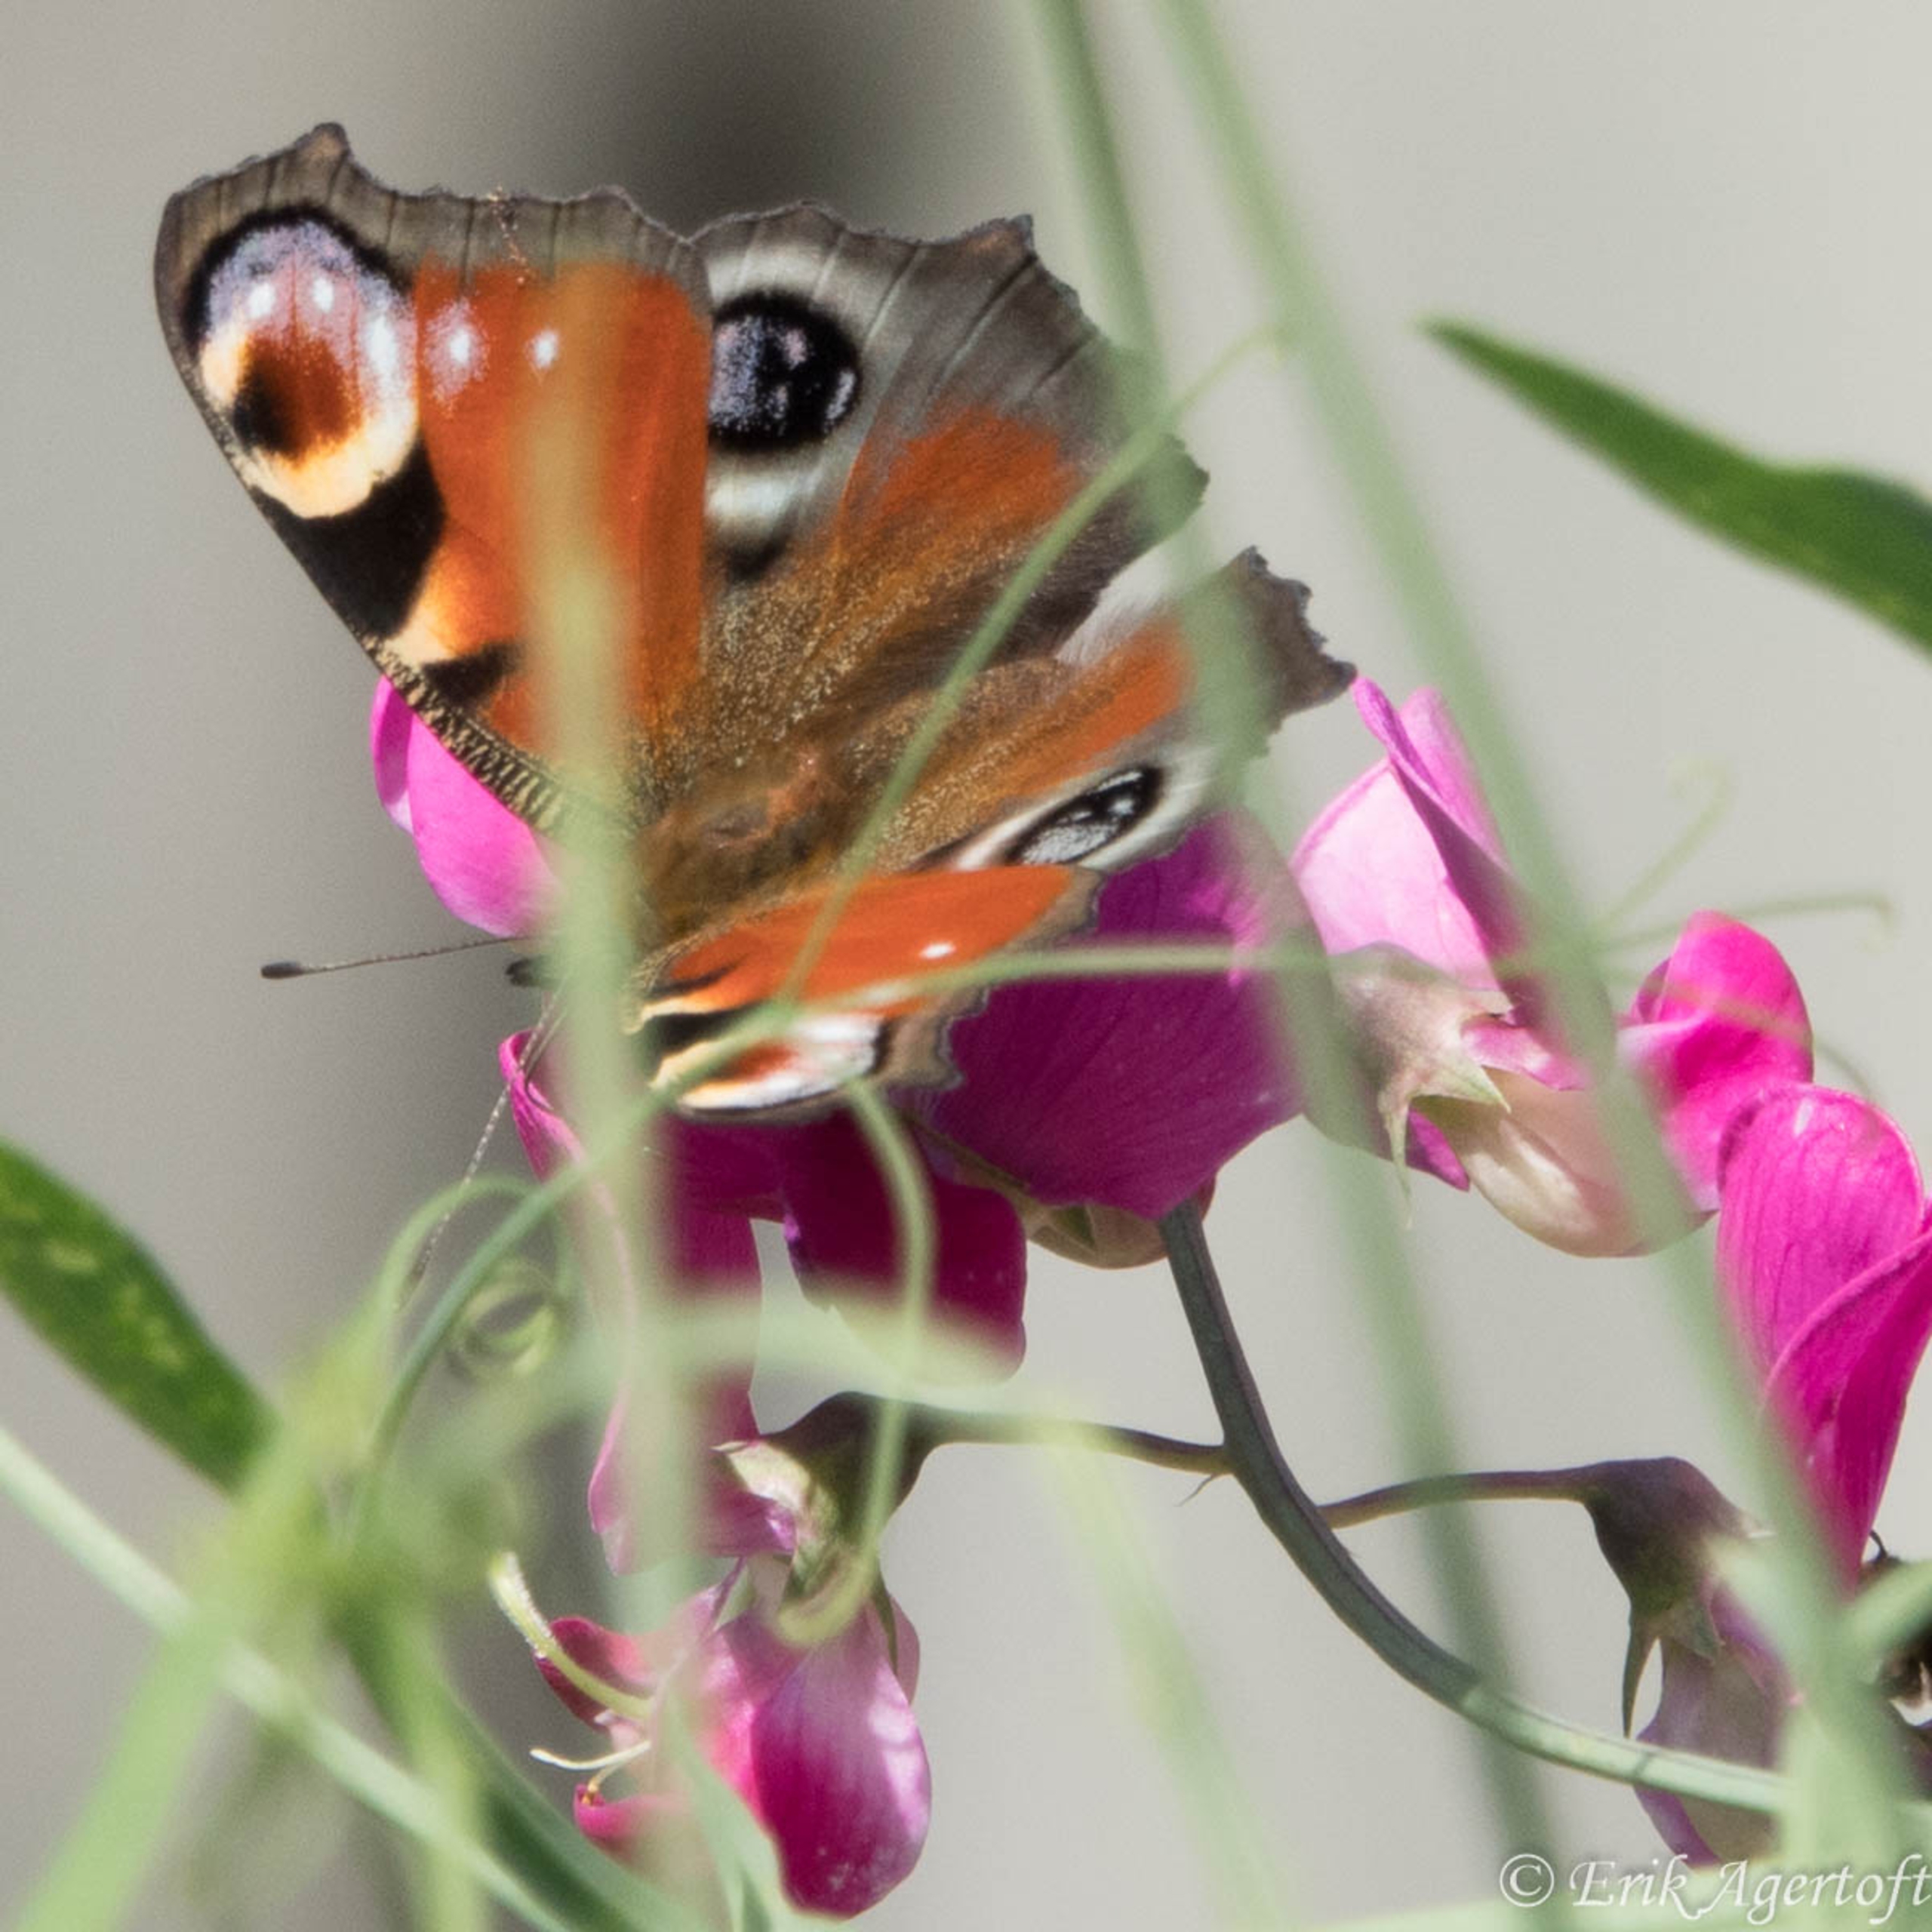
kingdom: Animalia
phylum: Arthropoda
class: Insecta
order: Lepidoptera
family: Nymphalidae
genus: Aglais
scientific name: Aglais io
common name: Dagpåfugleøje
